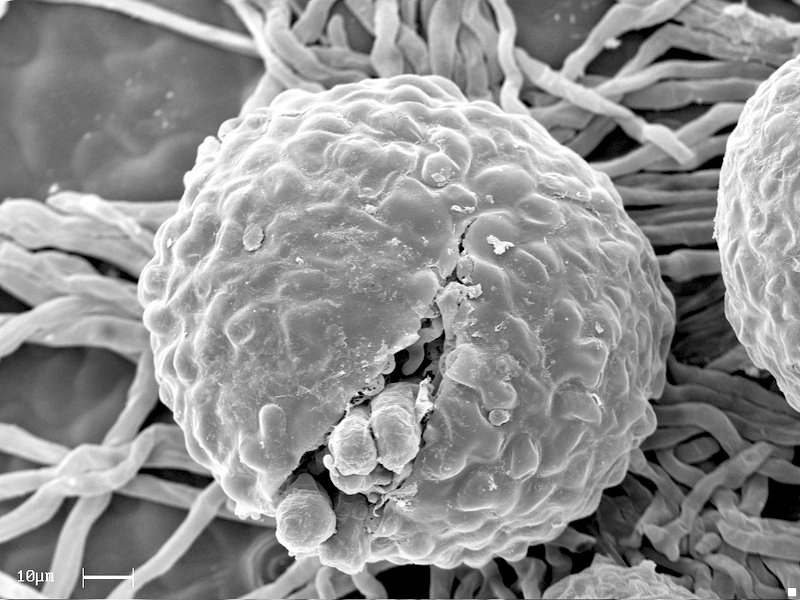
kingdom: Fungi
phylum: Ascomycota
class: Leotiomycetes
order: Helotiales
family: Erysiphaceae
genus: Phyllactinia
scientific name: Phyllactinia corni
